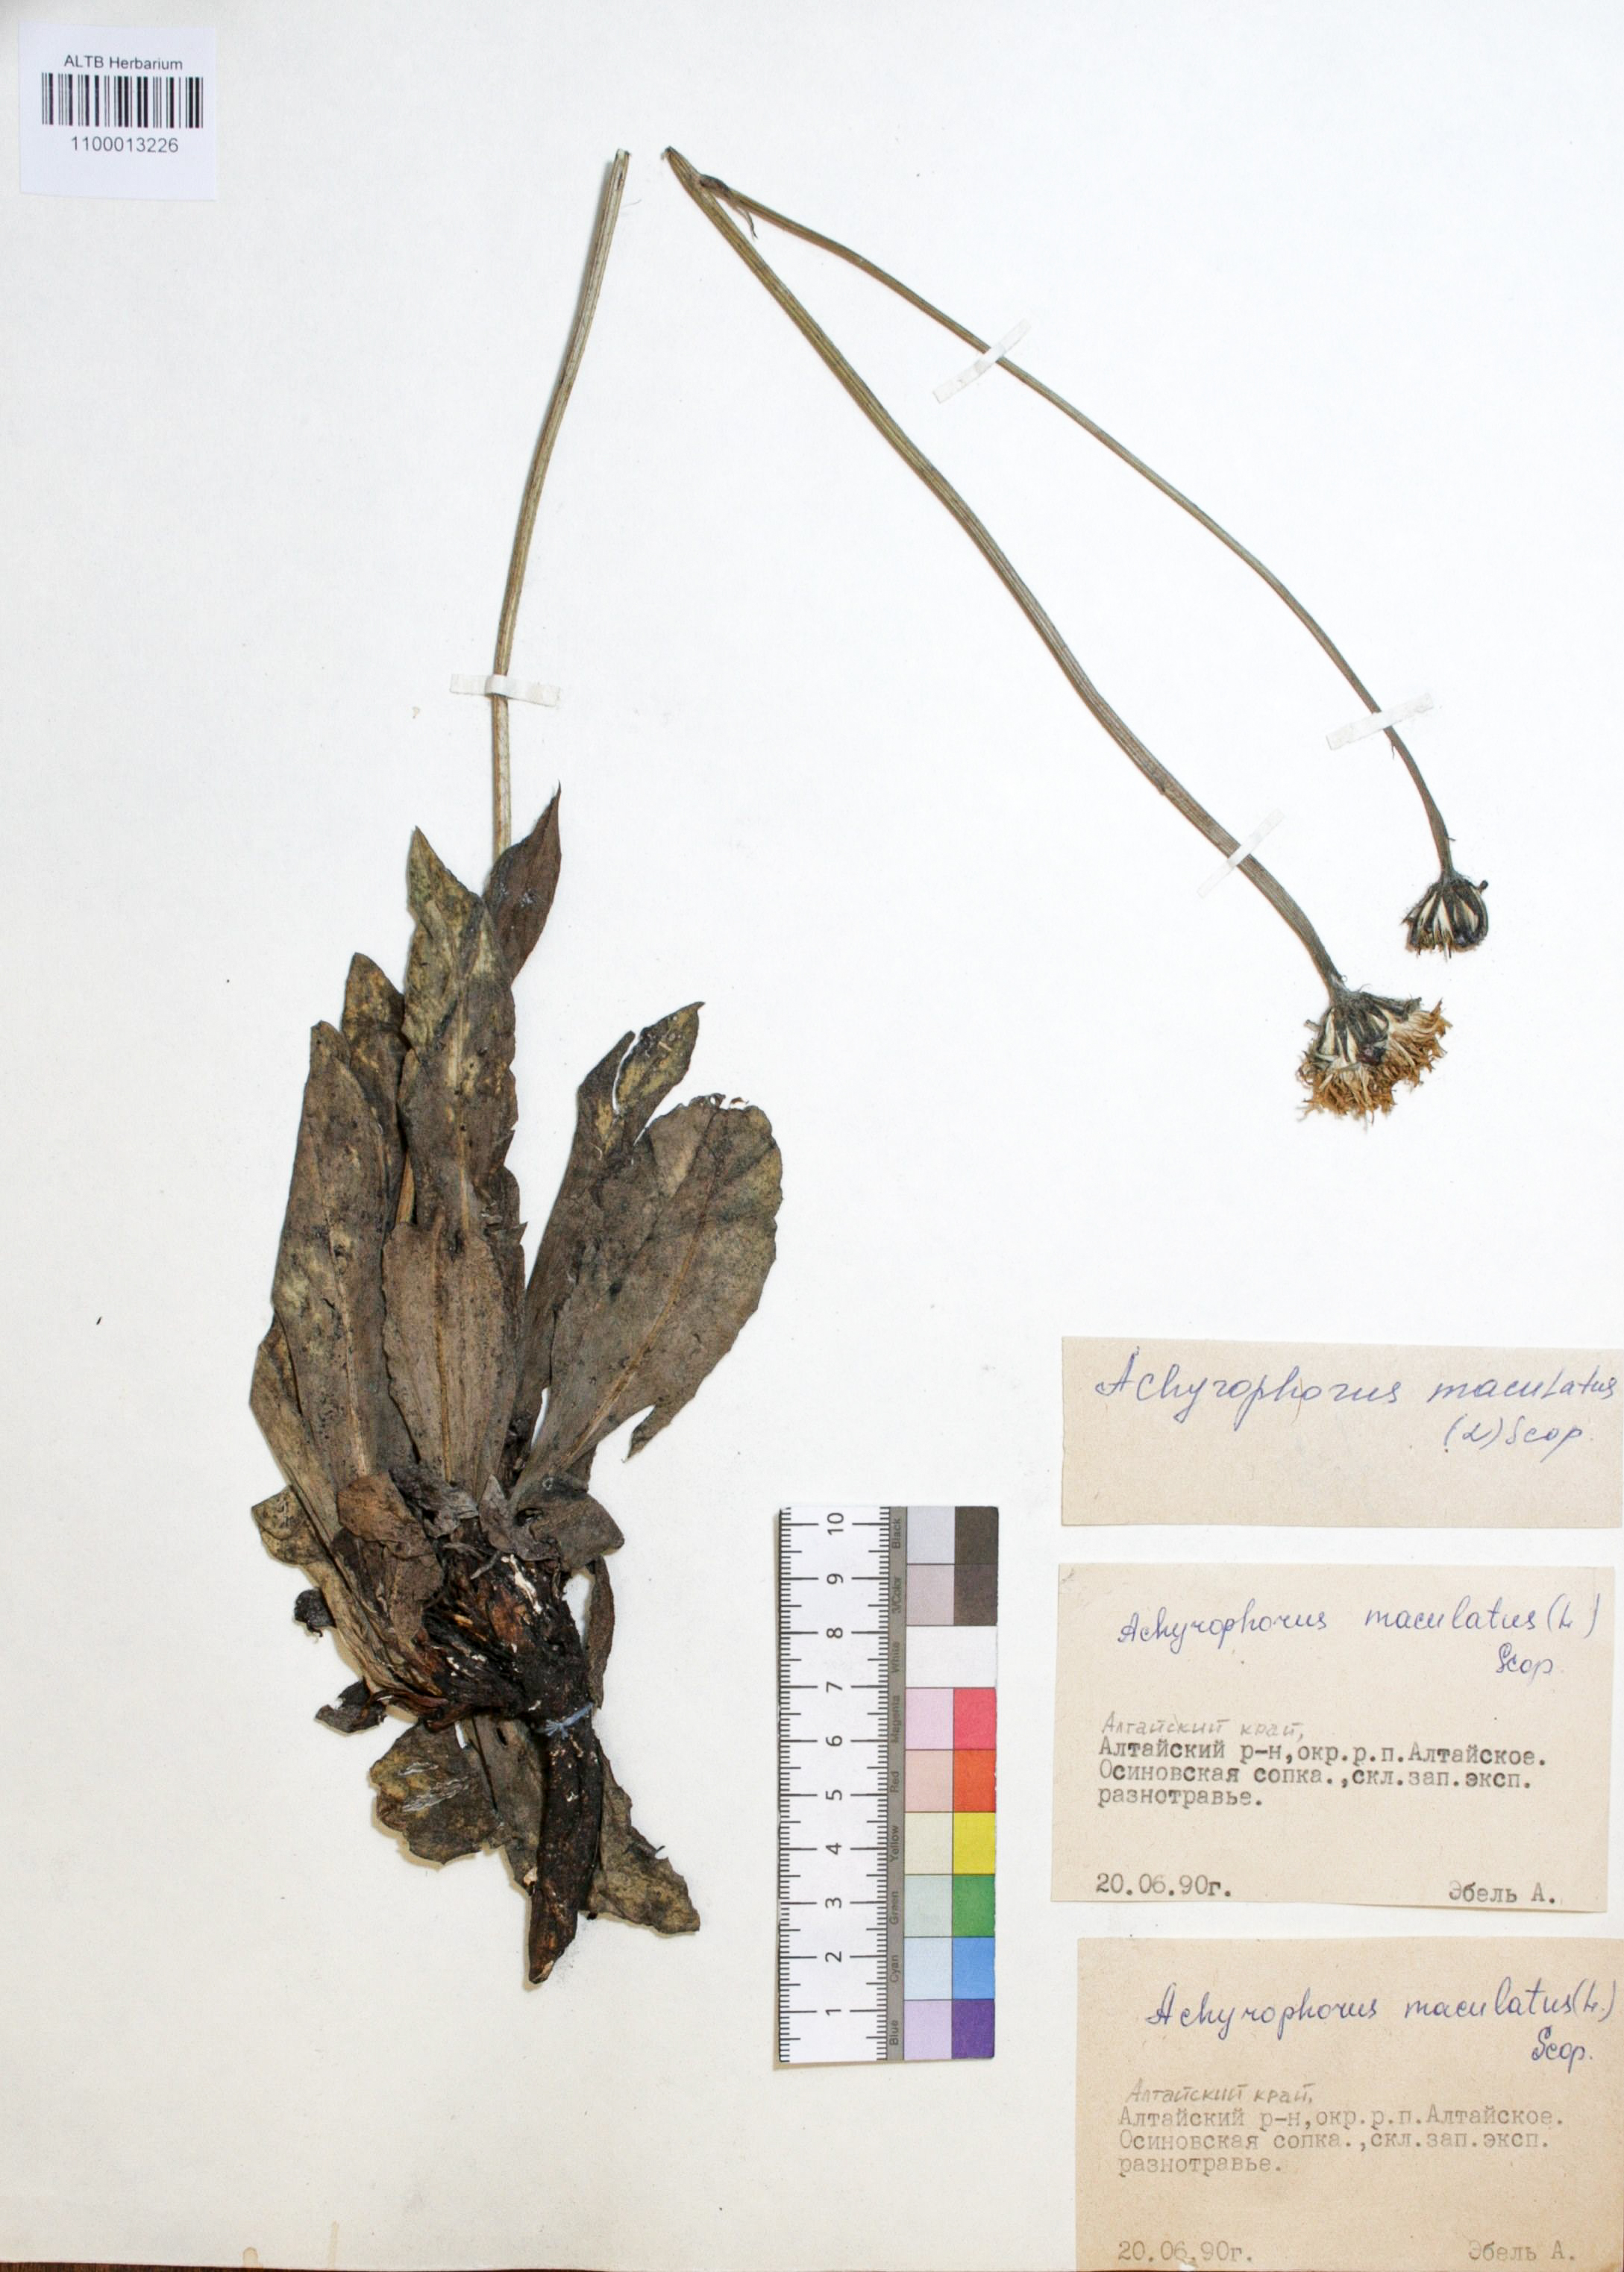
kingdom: Plantae
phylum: Tracheophyta
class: Magnoliopsida
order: Asterales
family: Asteraceae
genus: Trommsdorffia
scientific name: Trommsdorffia maculata
